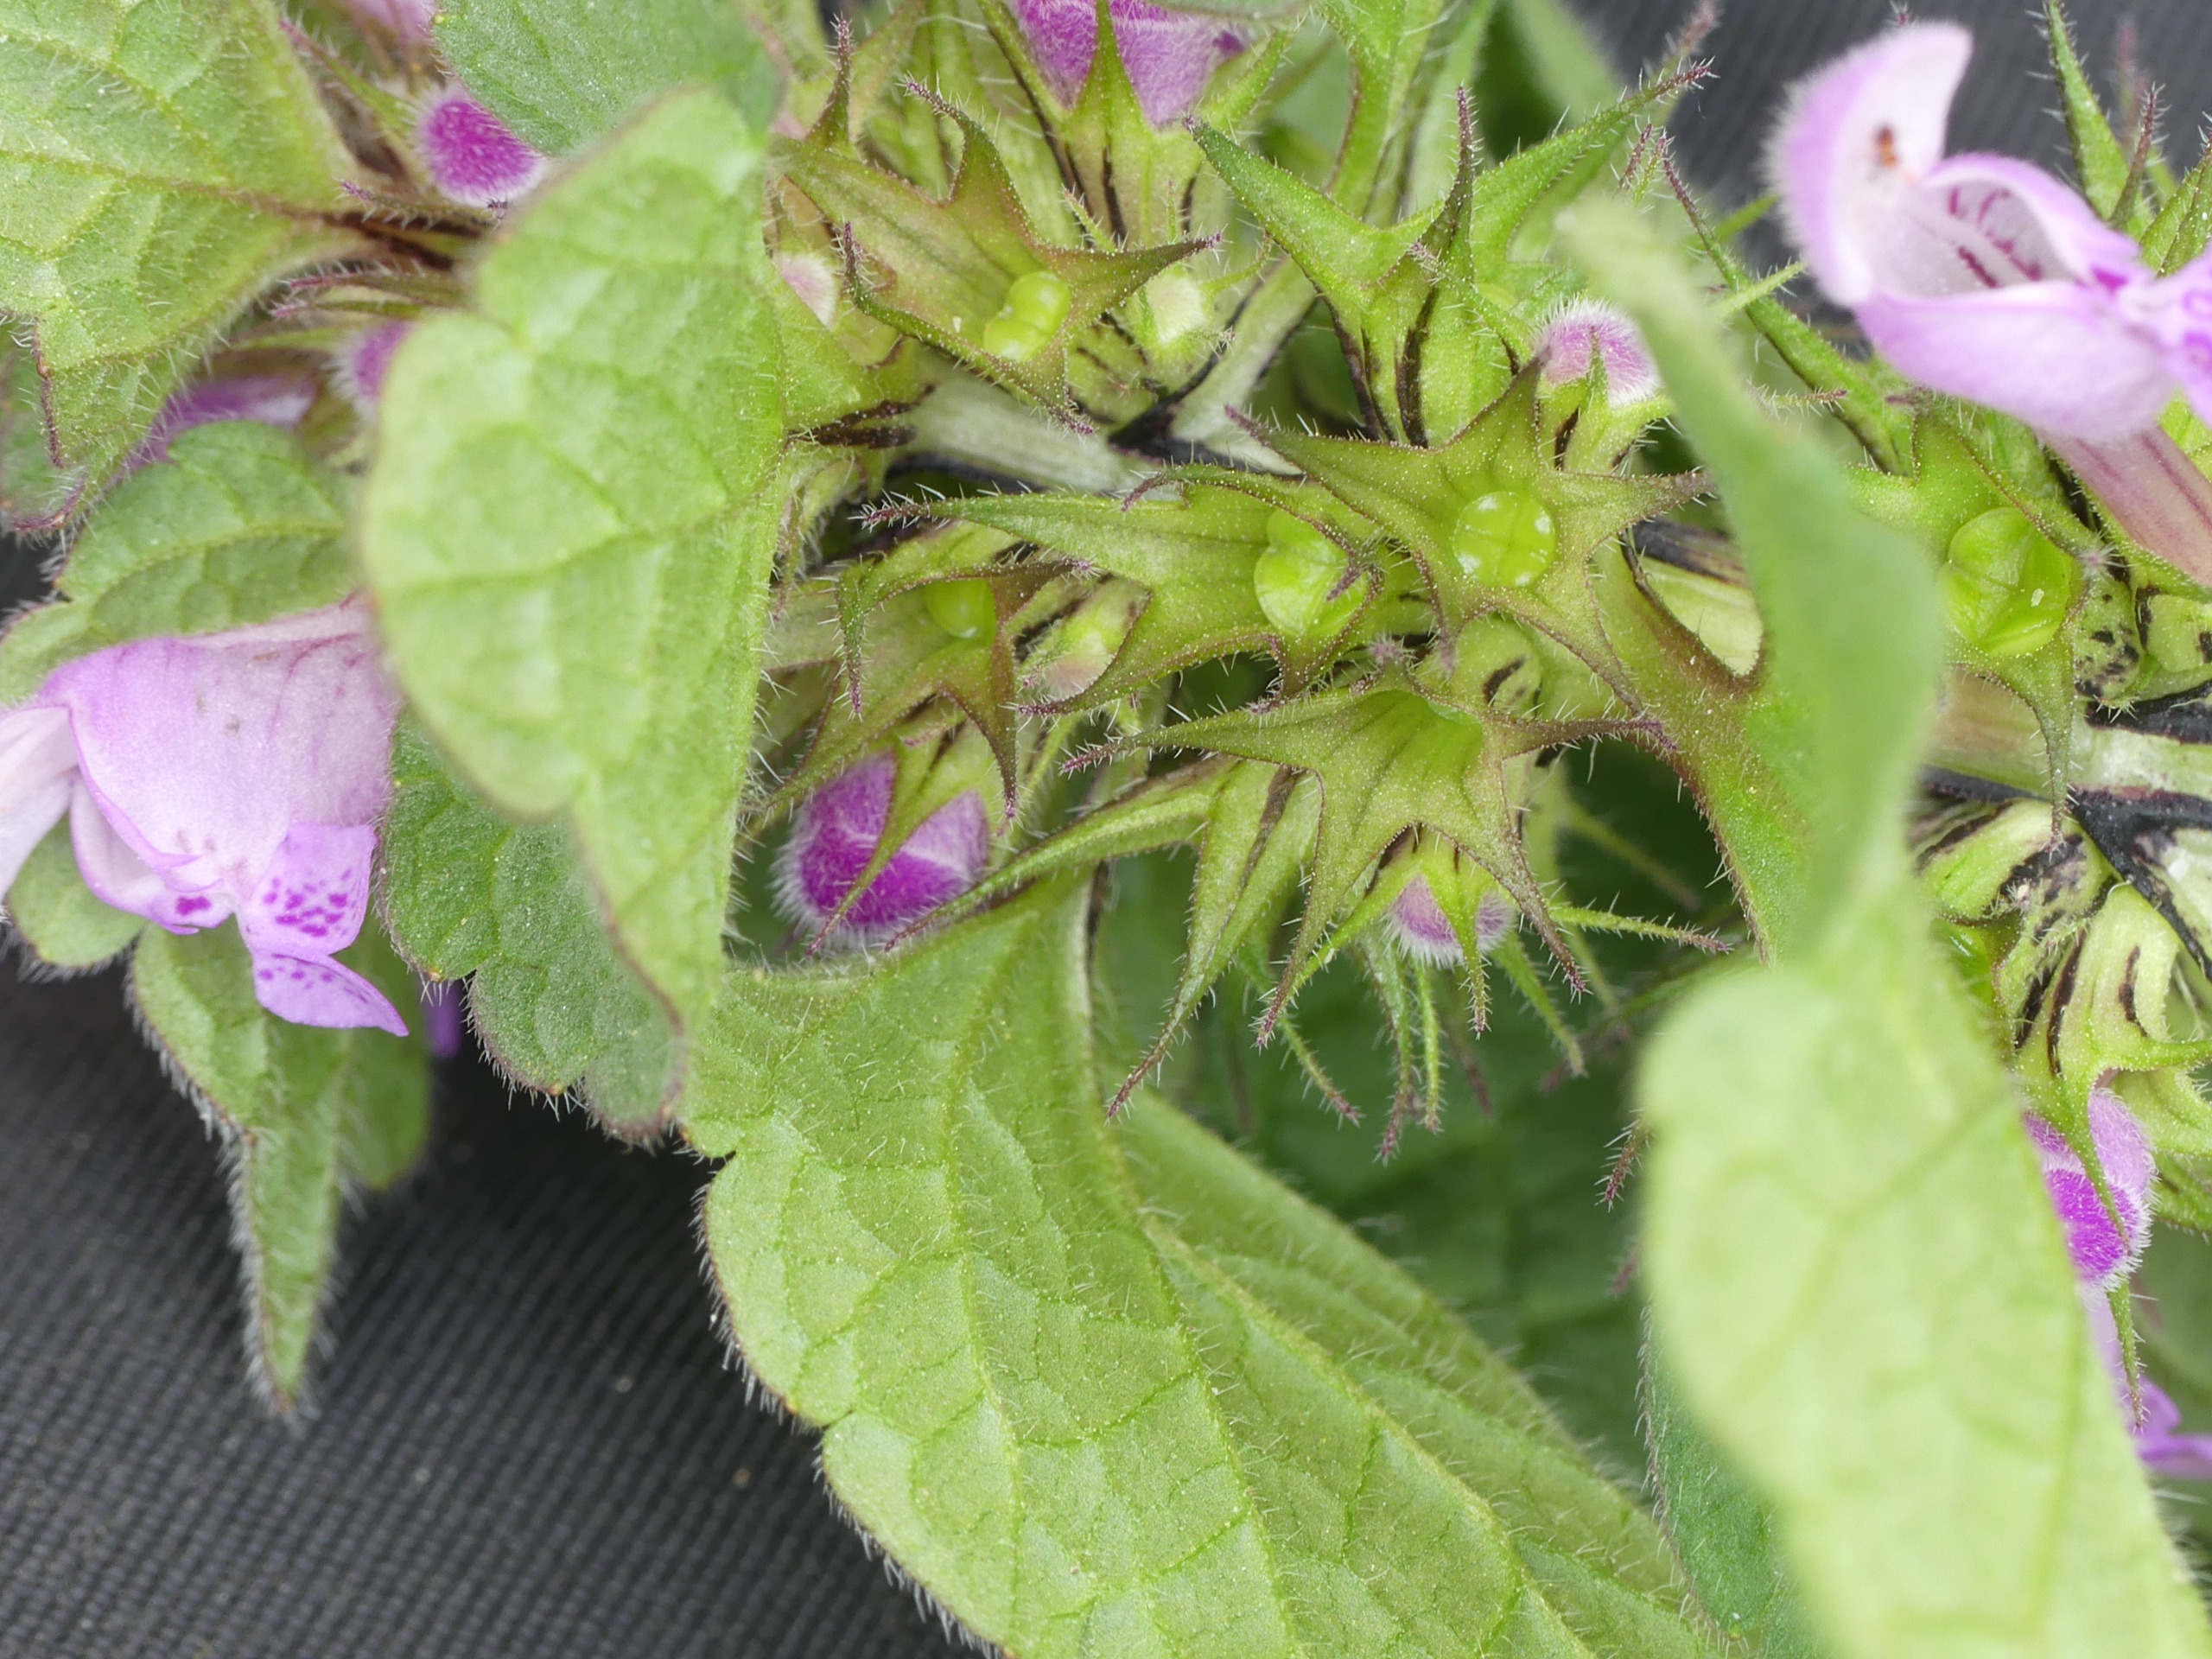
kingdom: Plantae
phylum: Tracheophyta
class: Magnoliopsida
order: Lamiales
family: Lamiaceae
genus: Lamium
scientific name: Lamium purpureum
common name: Rød tvetand
